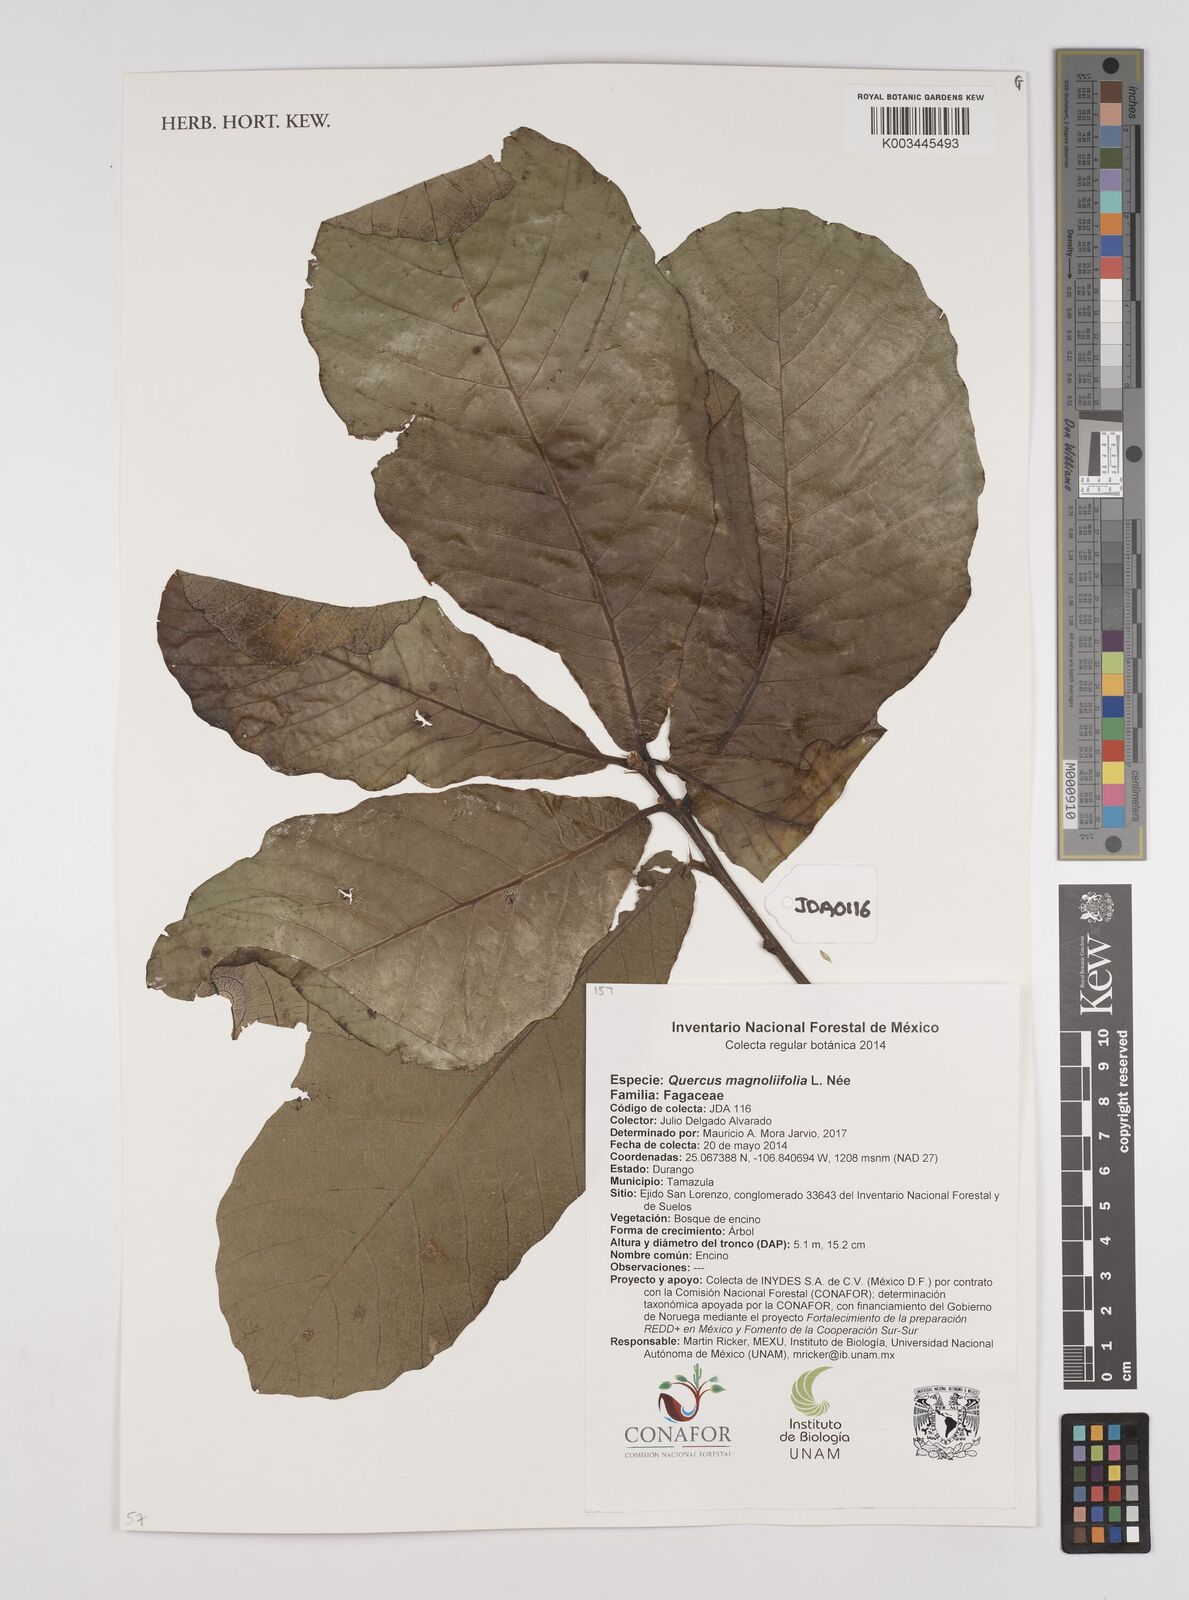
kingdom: Plantae
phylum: Tracheophyta
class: Magnoliopsida
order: Fagales
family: Fagaceae
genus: Quercus
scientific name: Quercus magnoliifolia
